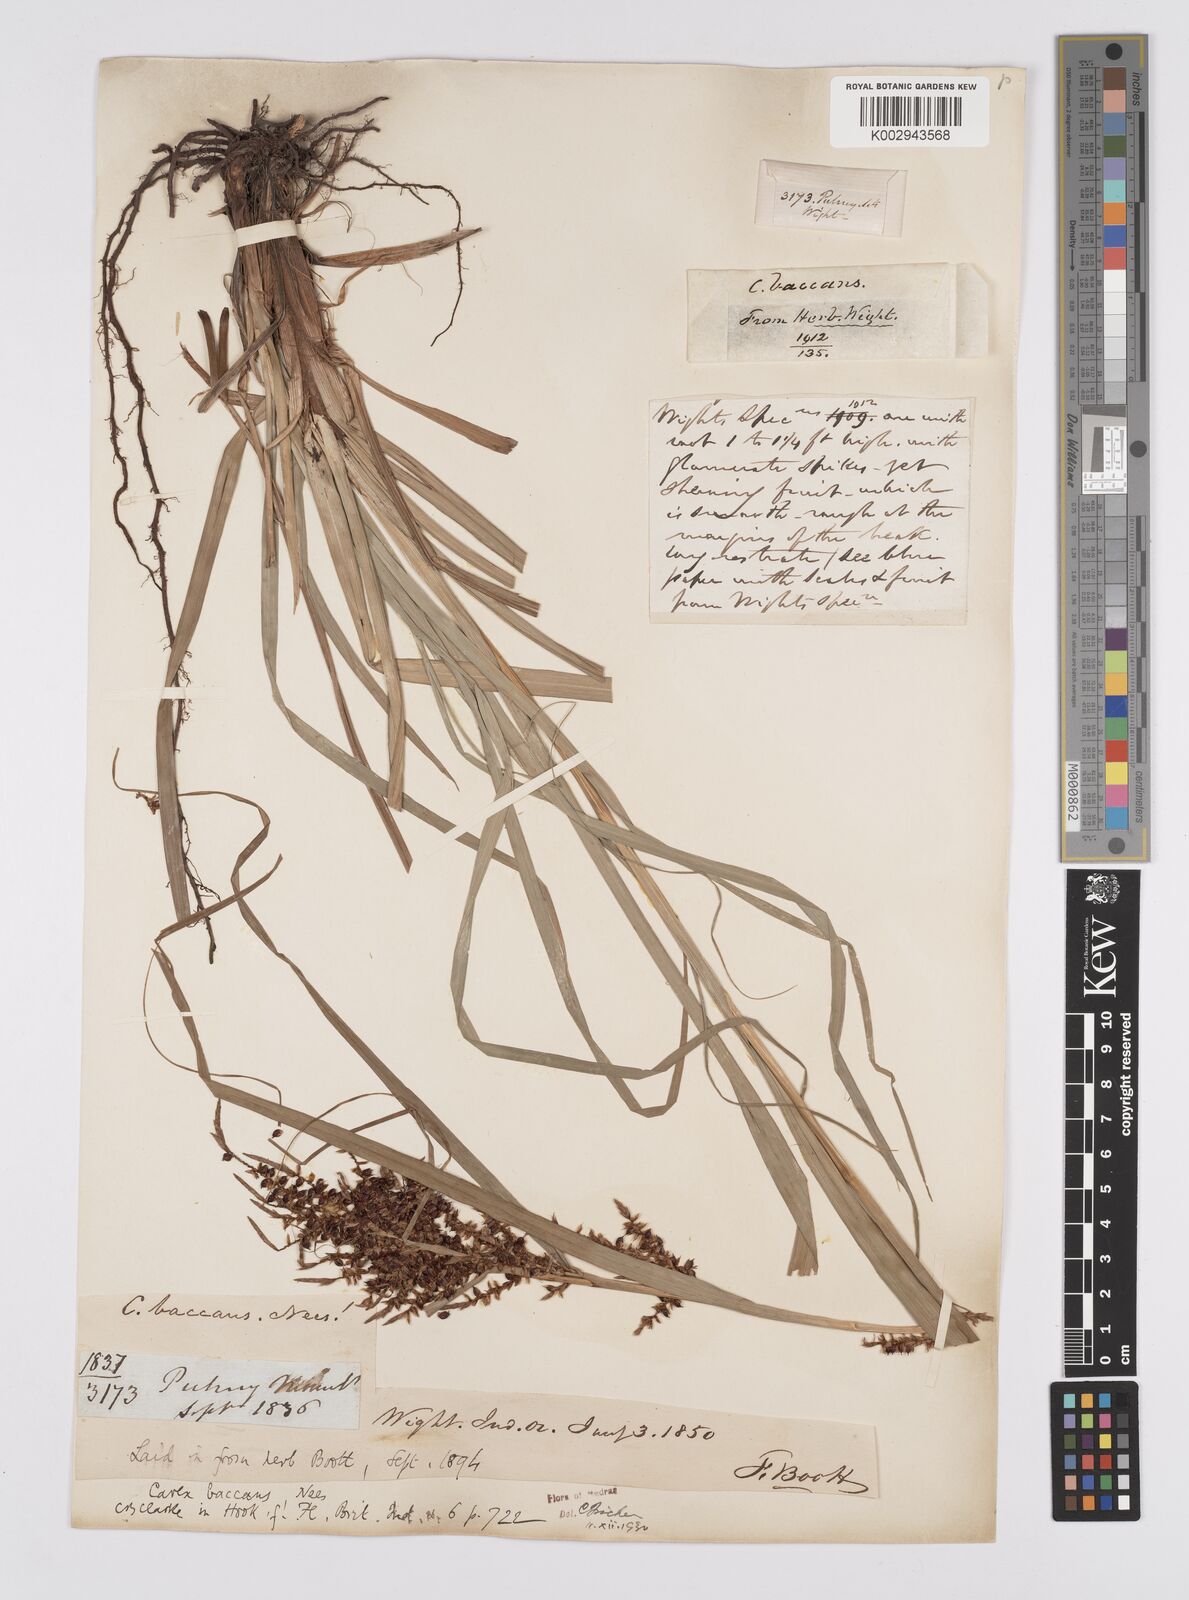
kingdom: Plantae
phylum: Tracheophyta
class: Liliopsida
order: Poales
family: Cyperaceae
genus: Carex
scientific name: Carex baccans
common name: Crimson seeded sedge
